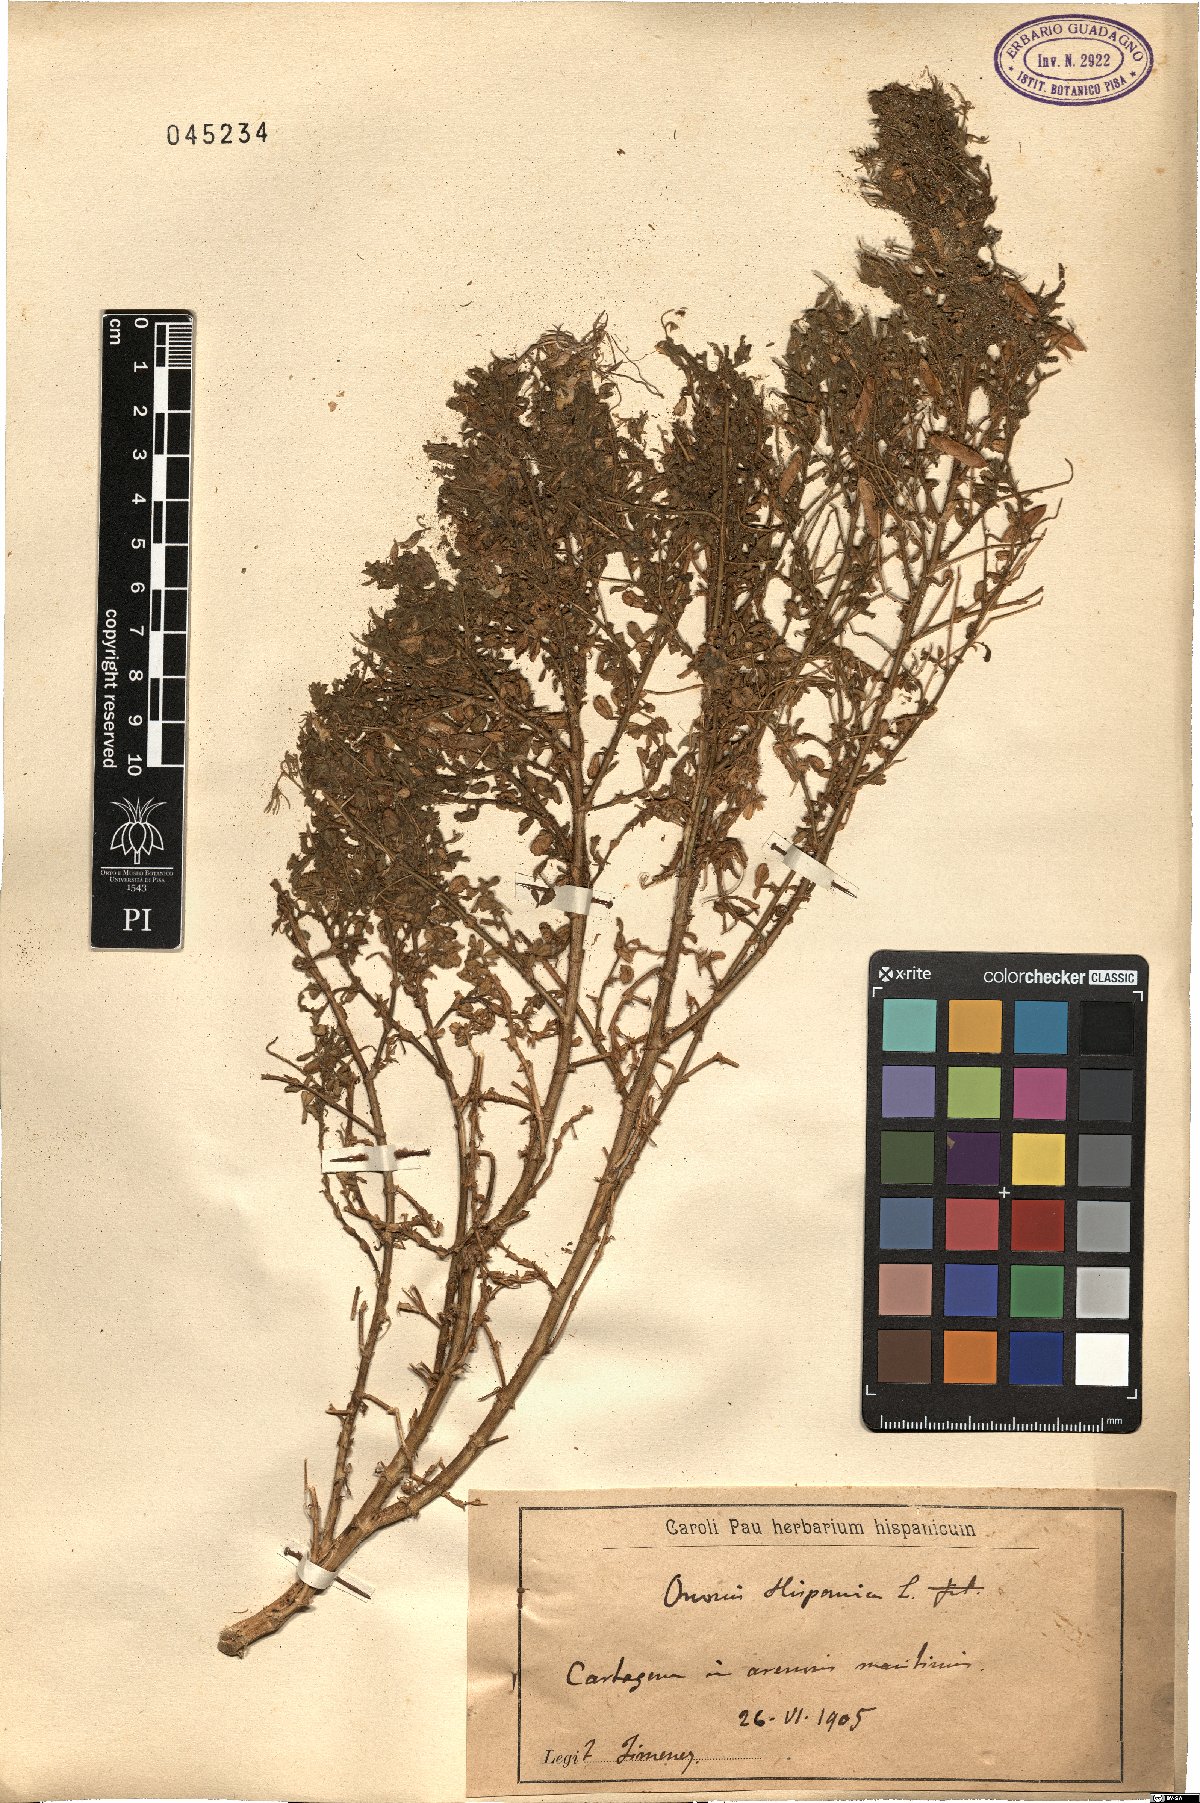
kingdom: Plantae
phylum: Tracheophyta
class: Magnoliopsida
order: Fabales
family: Fabaceae
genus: Ononis
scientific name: Ononis natrix
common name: Yellow restharrow
